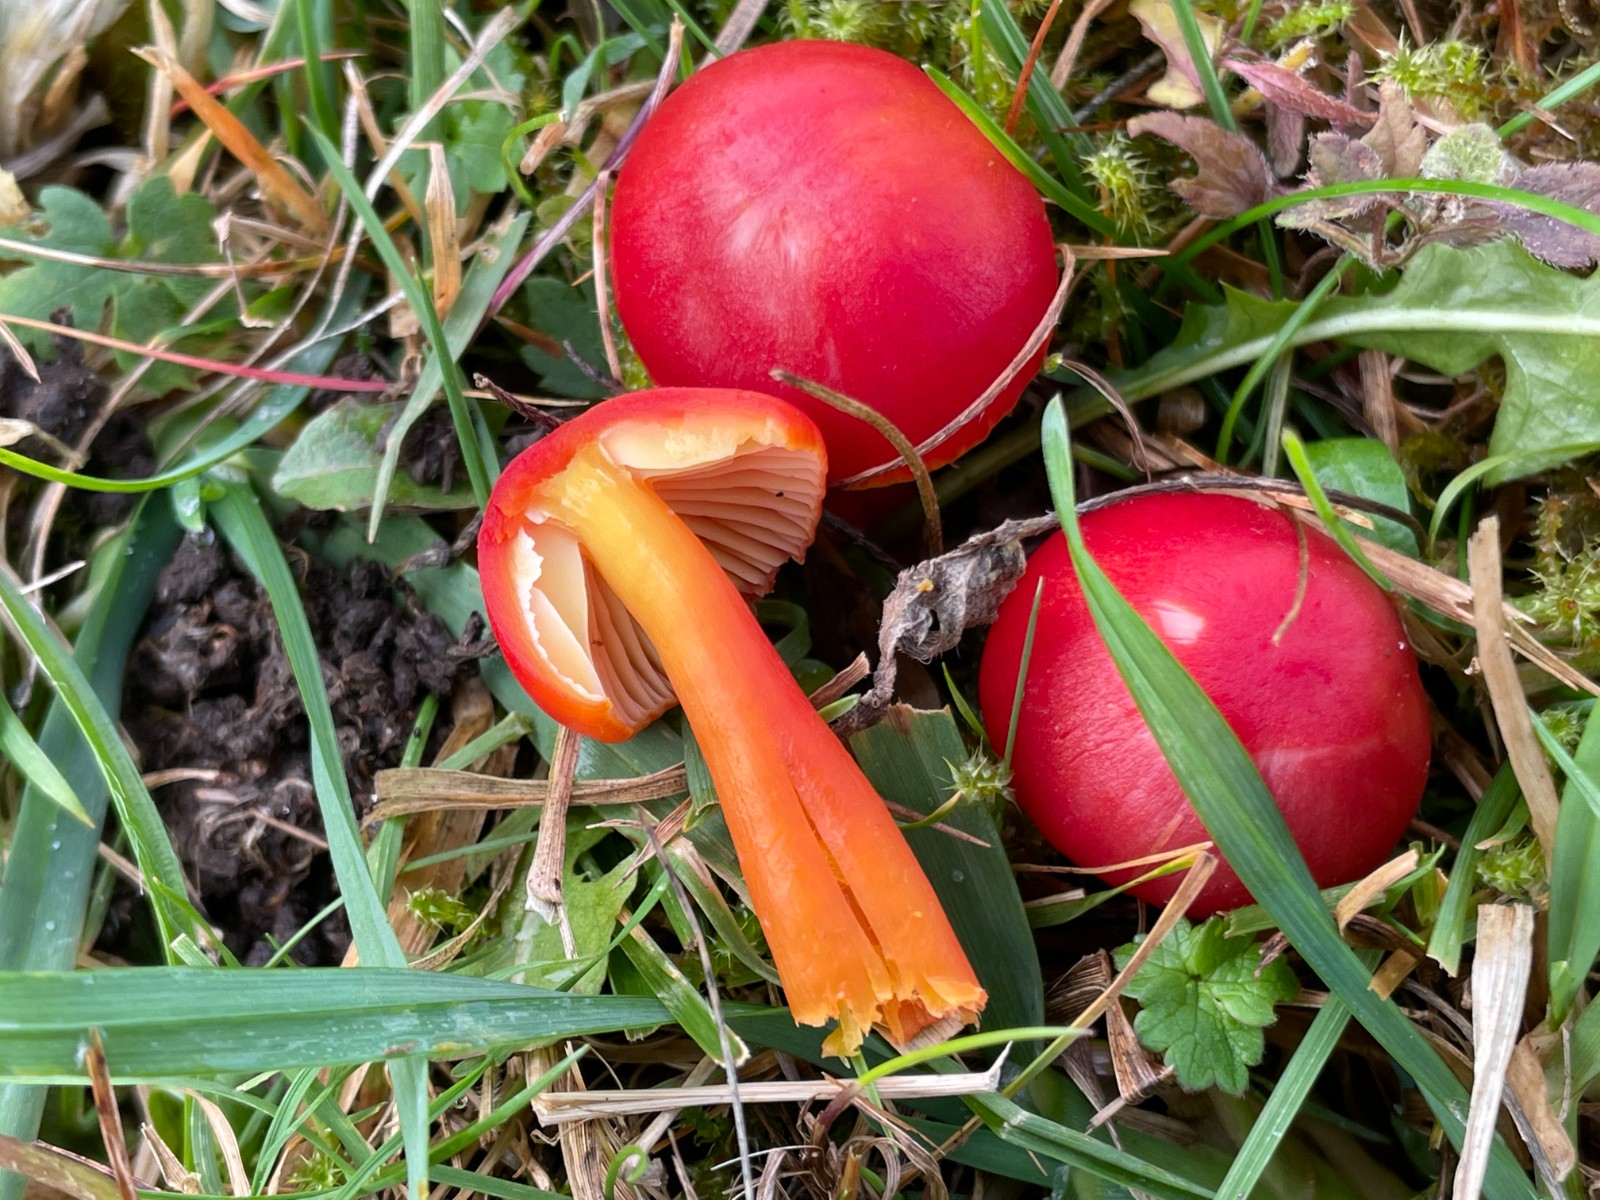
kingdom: Fungi
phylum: Basidiomycota
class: Agaricomycetes
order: Agaricales
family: Hygrophoraceae
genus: Hygrocybe
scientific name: Hygrocybe coccinea
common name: cinnober-vokshat
